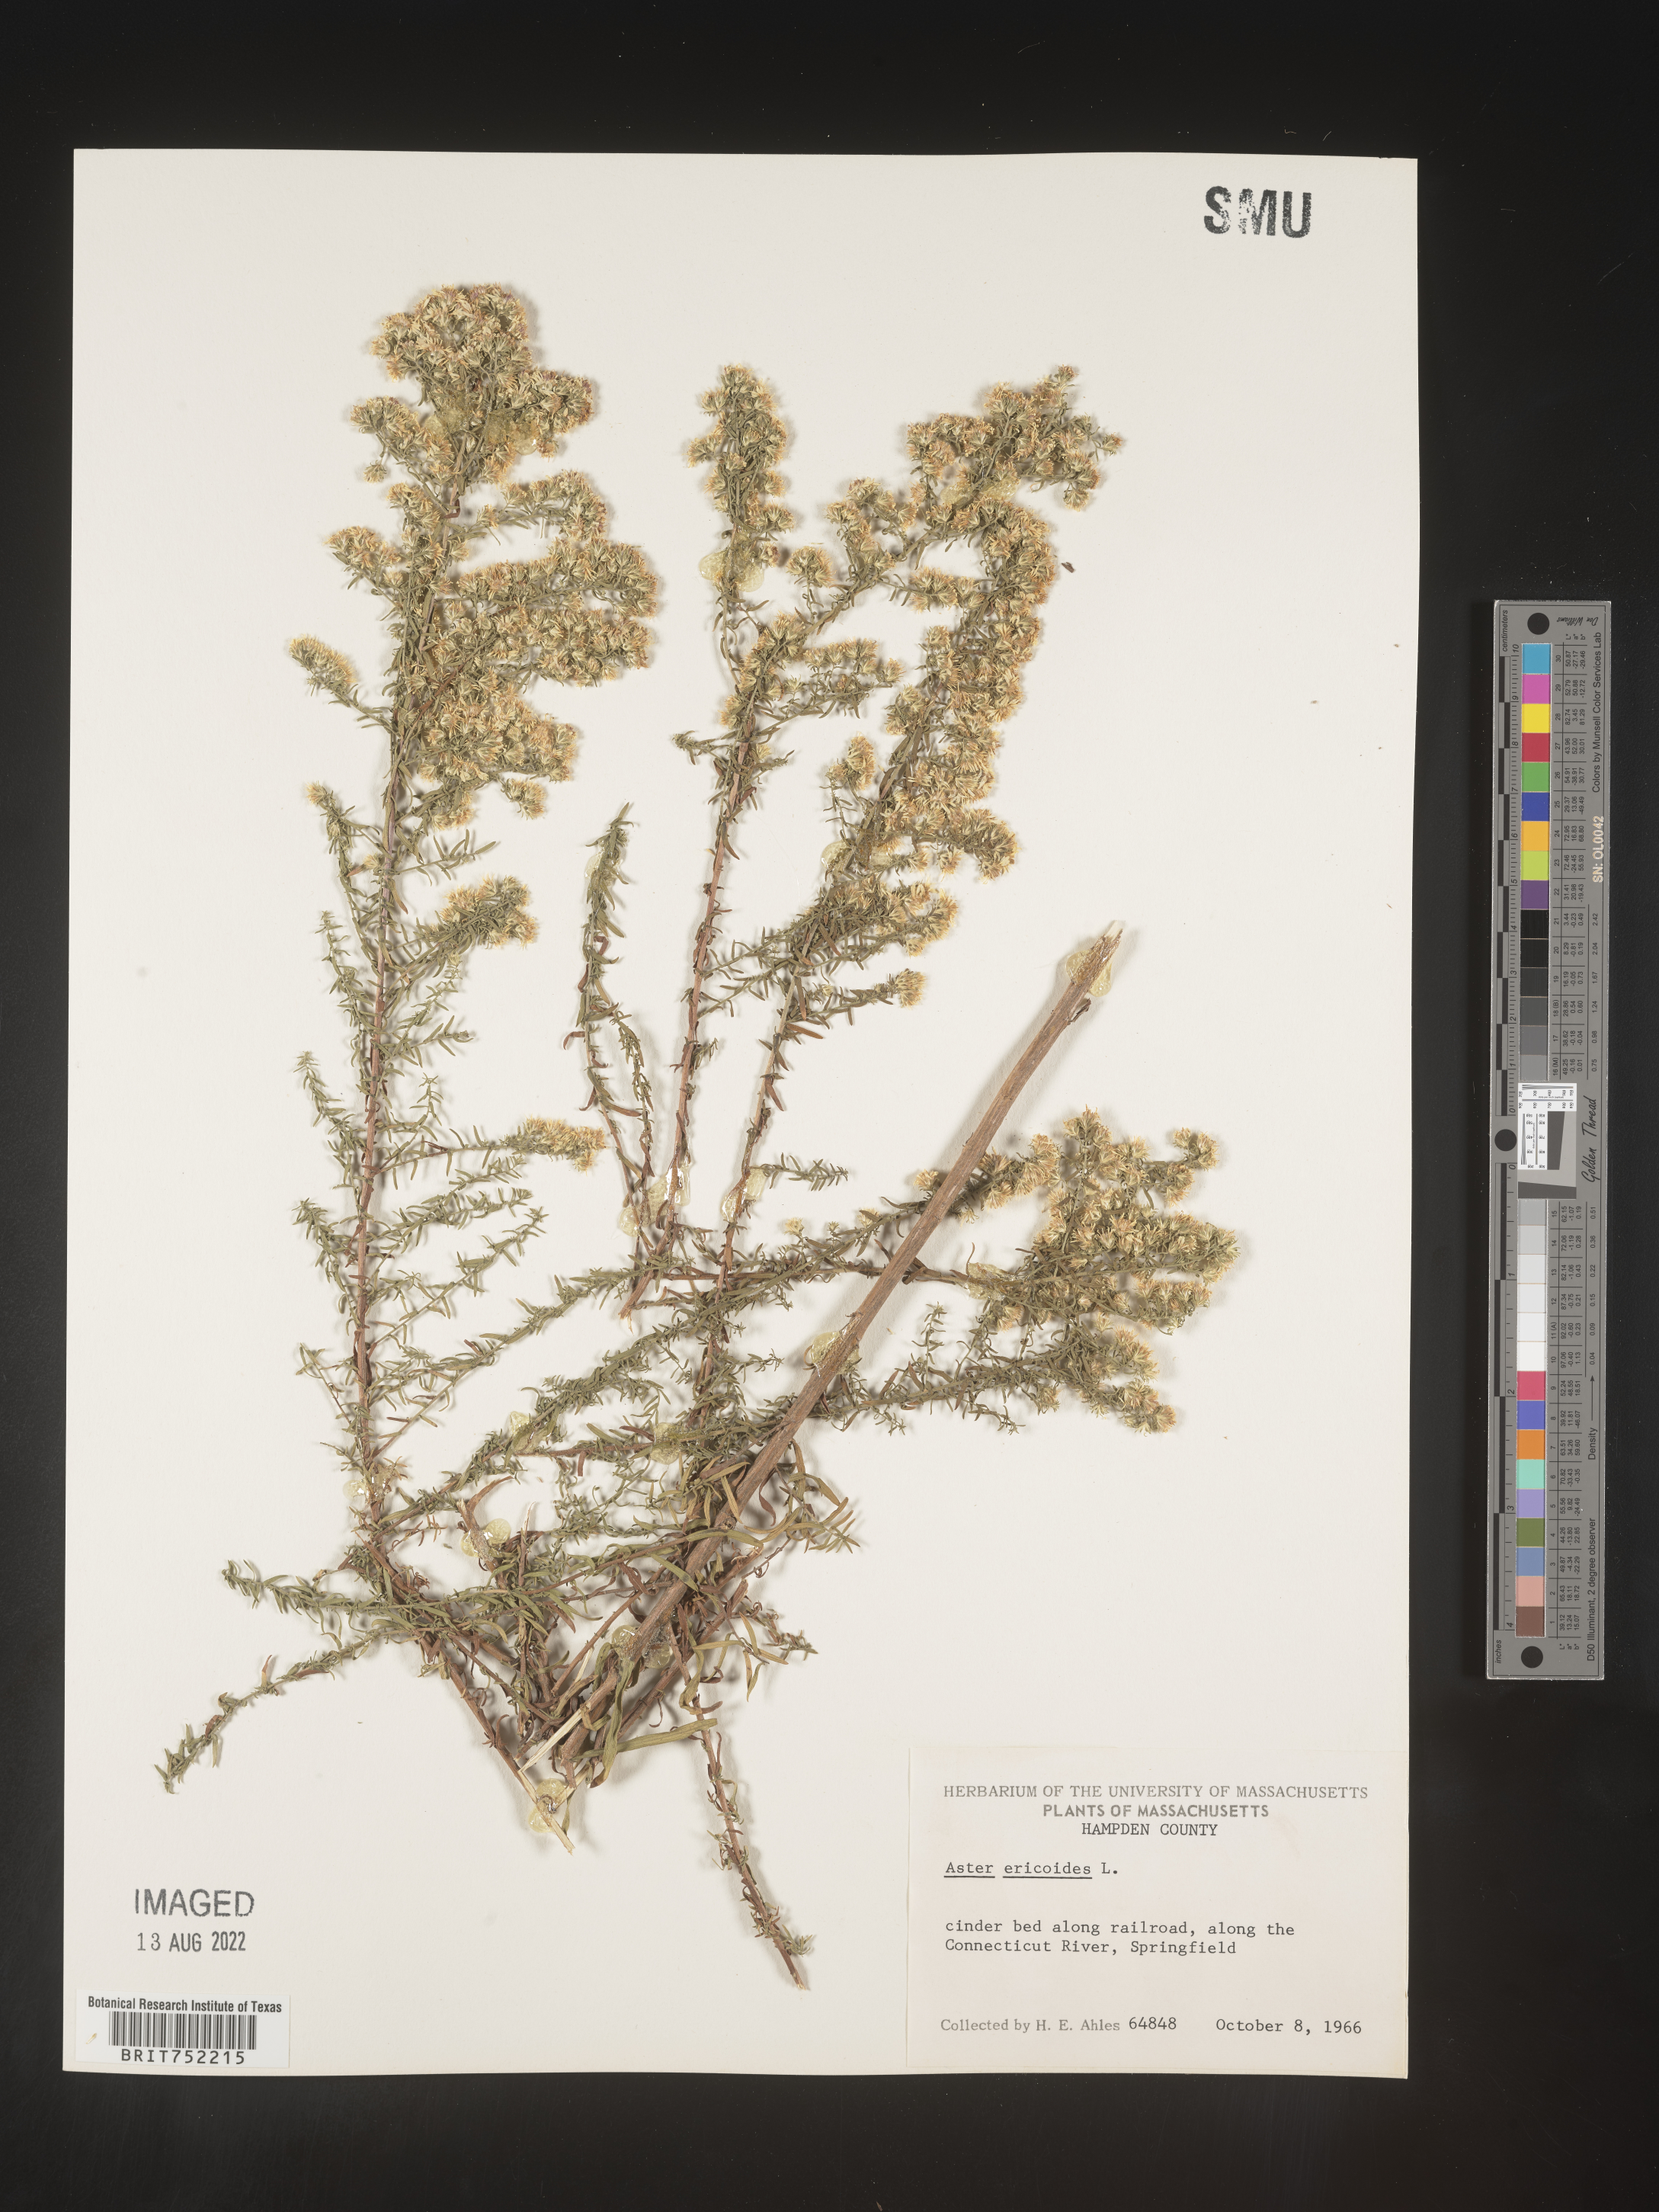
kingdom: Plantae
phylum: Tracheophyta
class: Magnoliopsida
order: Asterales
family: Asteraceae
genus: Symphyotrichum
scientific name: Symphyotrichum ericoides
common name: Heath aster
